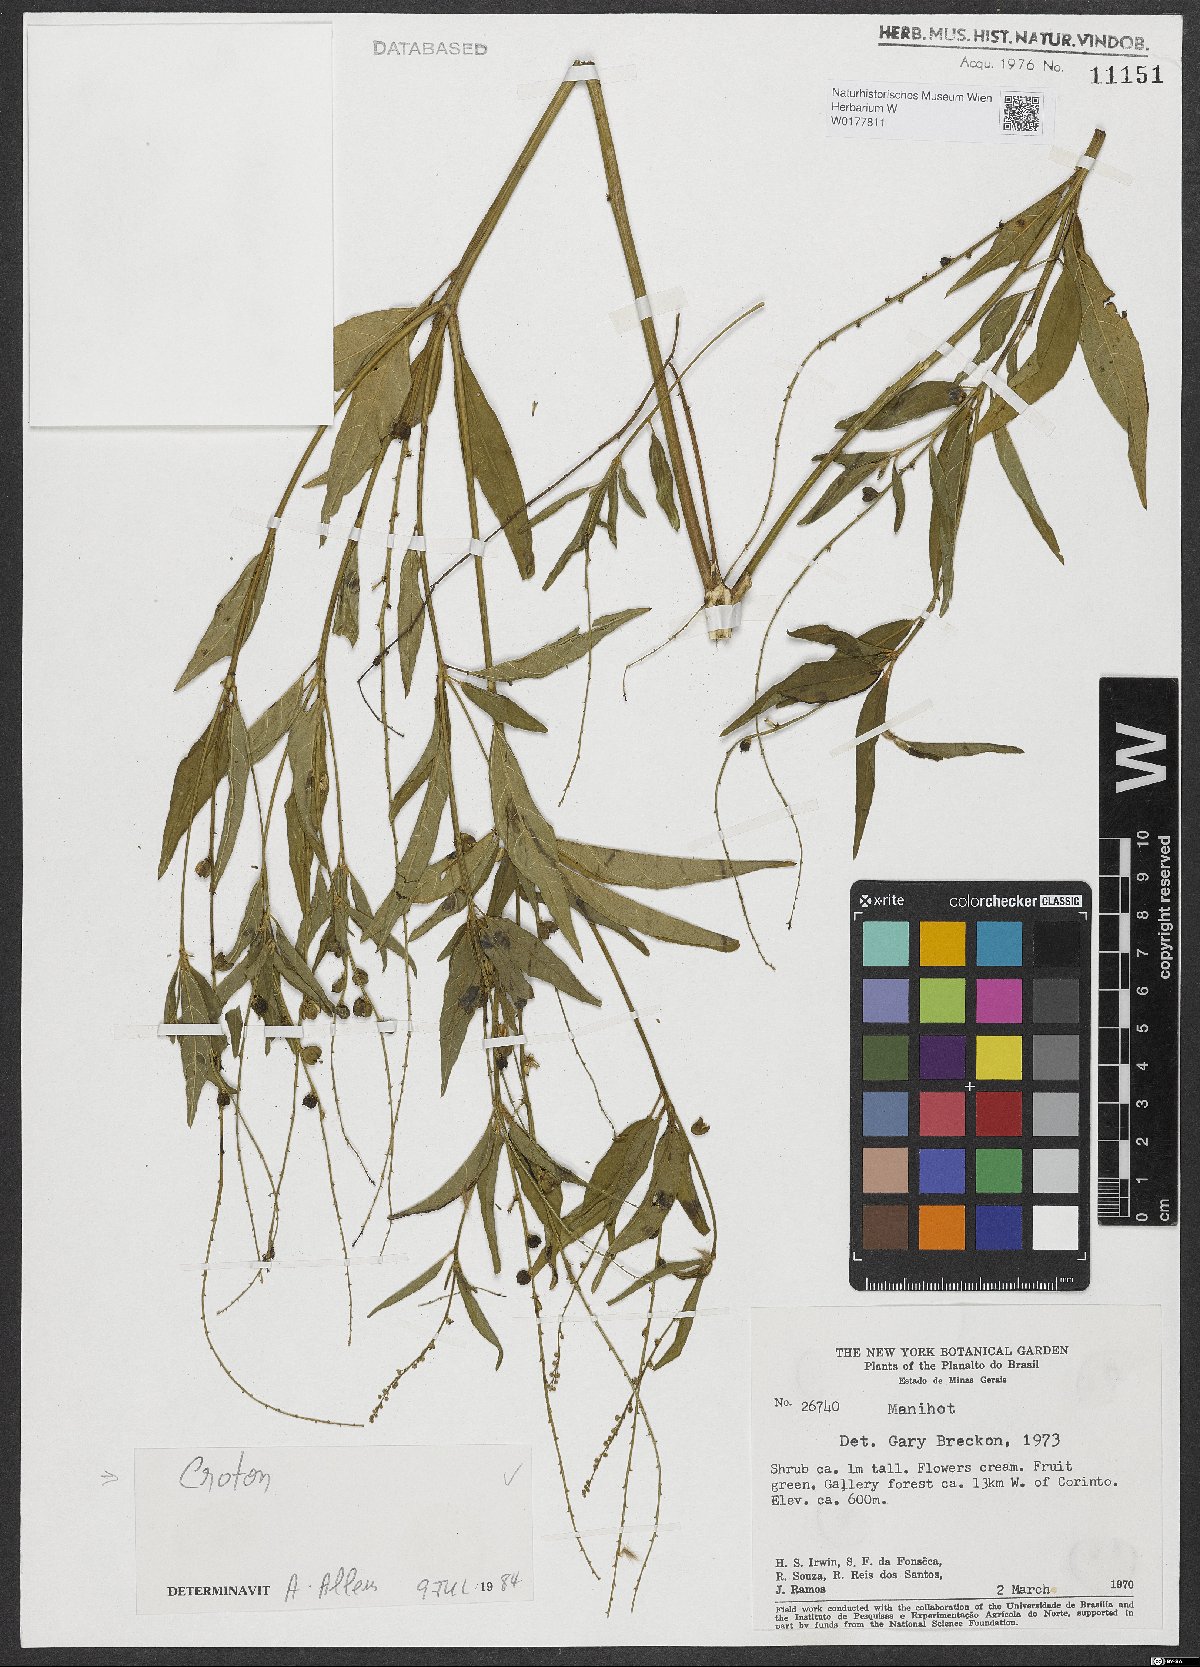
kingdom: Plantae
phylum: Tracheophyta
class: Magnoliopsida
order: Malpighiales
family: Euphorbiaceae
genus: Croton
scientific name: Croton
